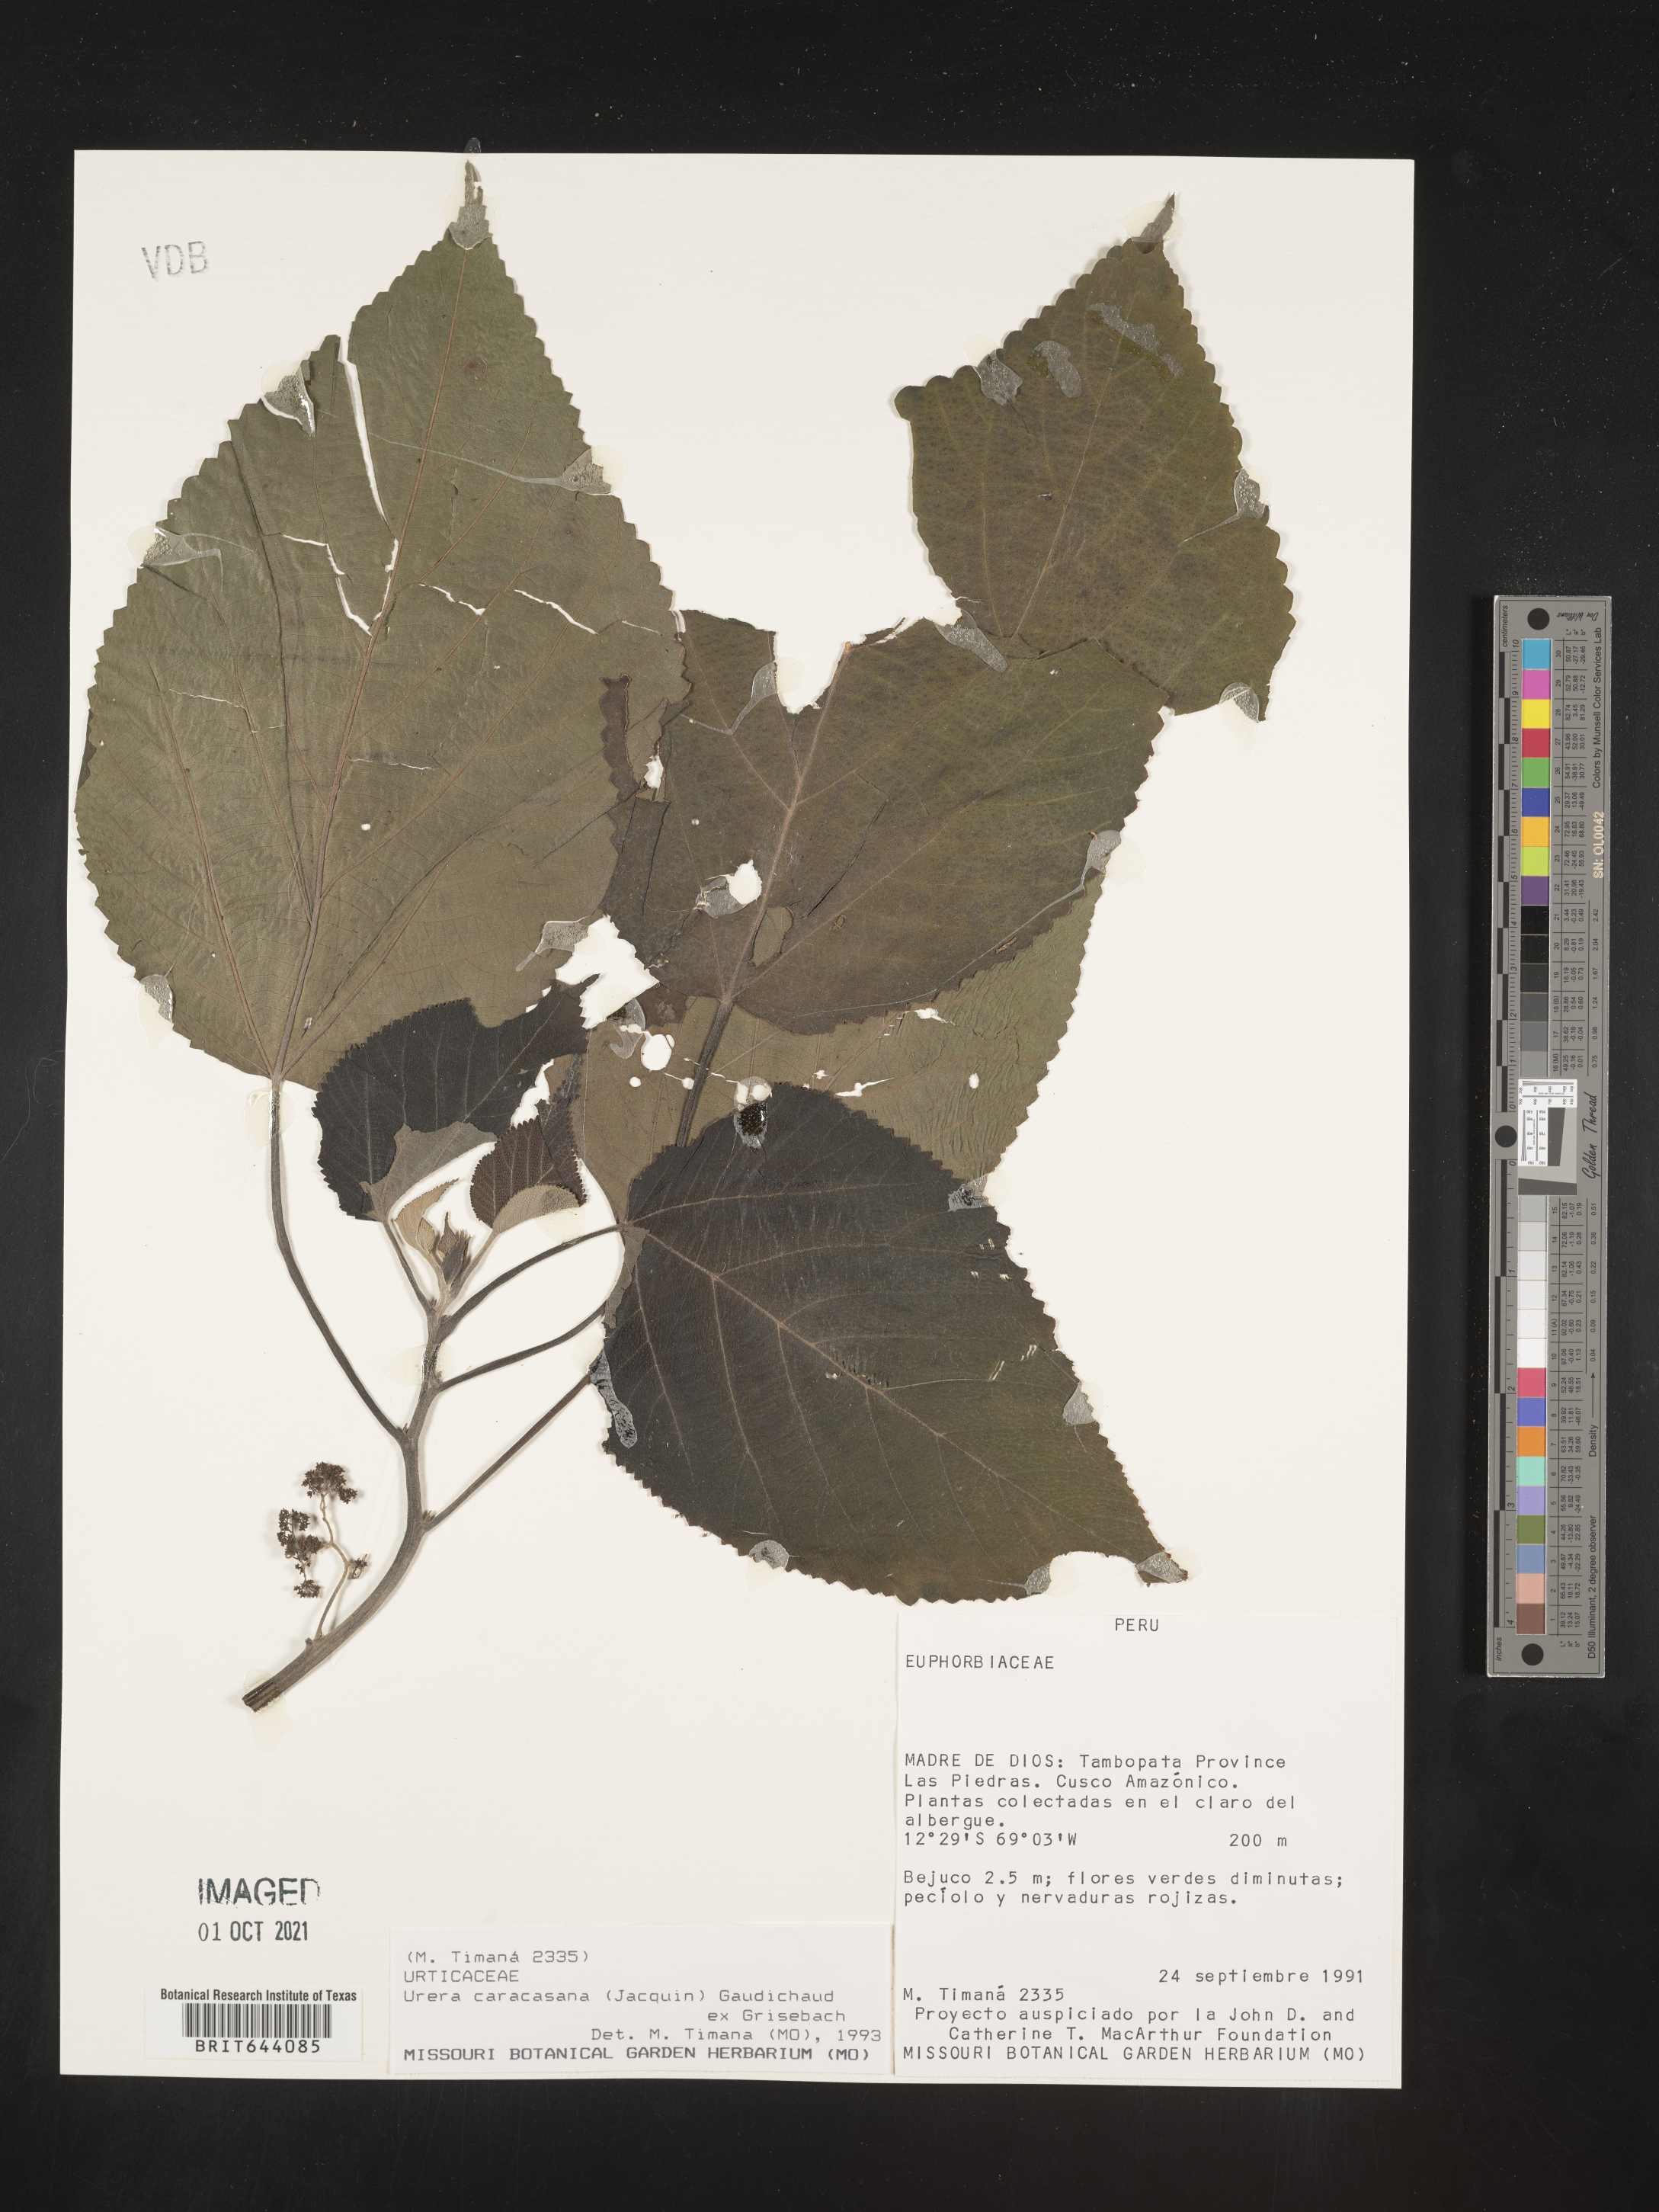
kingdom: Plantae
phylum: Tracheophyta
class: Magnoliopsida
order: Rosales
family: Urticaceae
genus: Urera
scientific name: Urera
